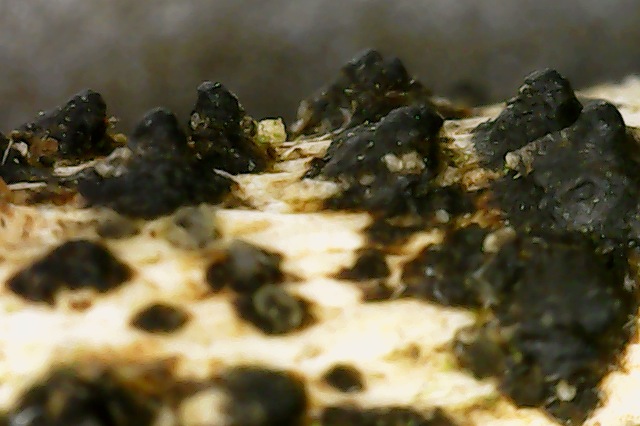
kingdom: Fungi
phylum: Ascomycota
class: Sordariomycetes
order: Xylariales
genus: Melomastia
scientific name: Melomastia mastoidea
